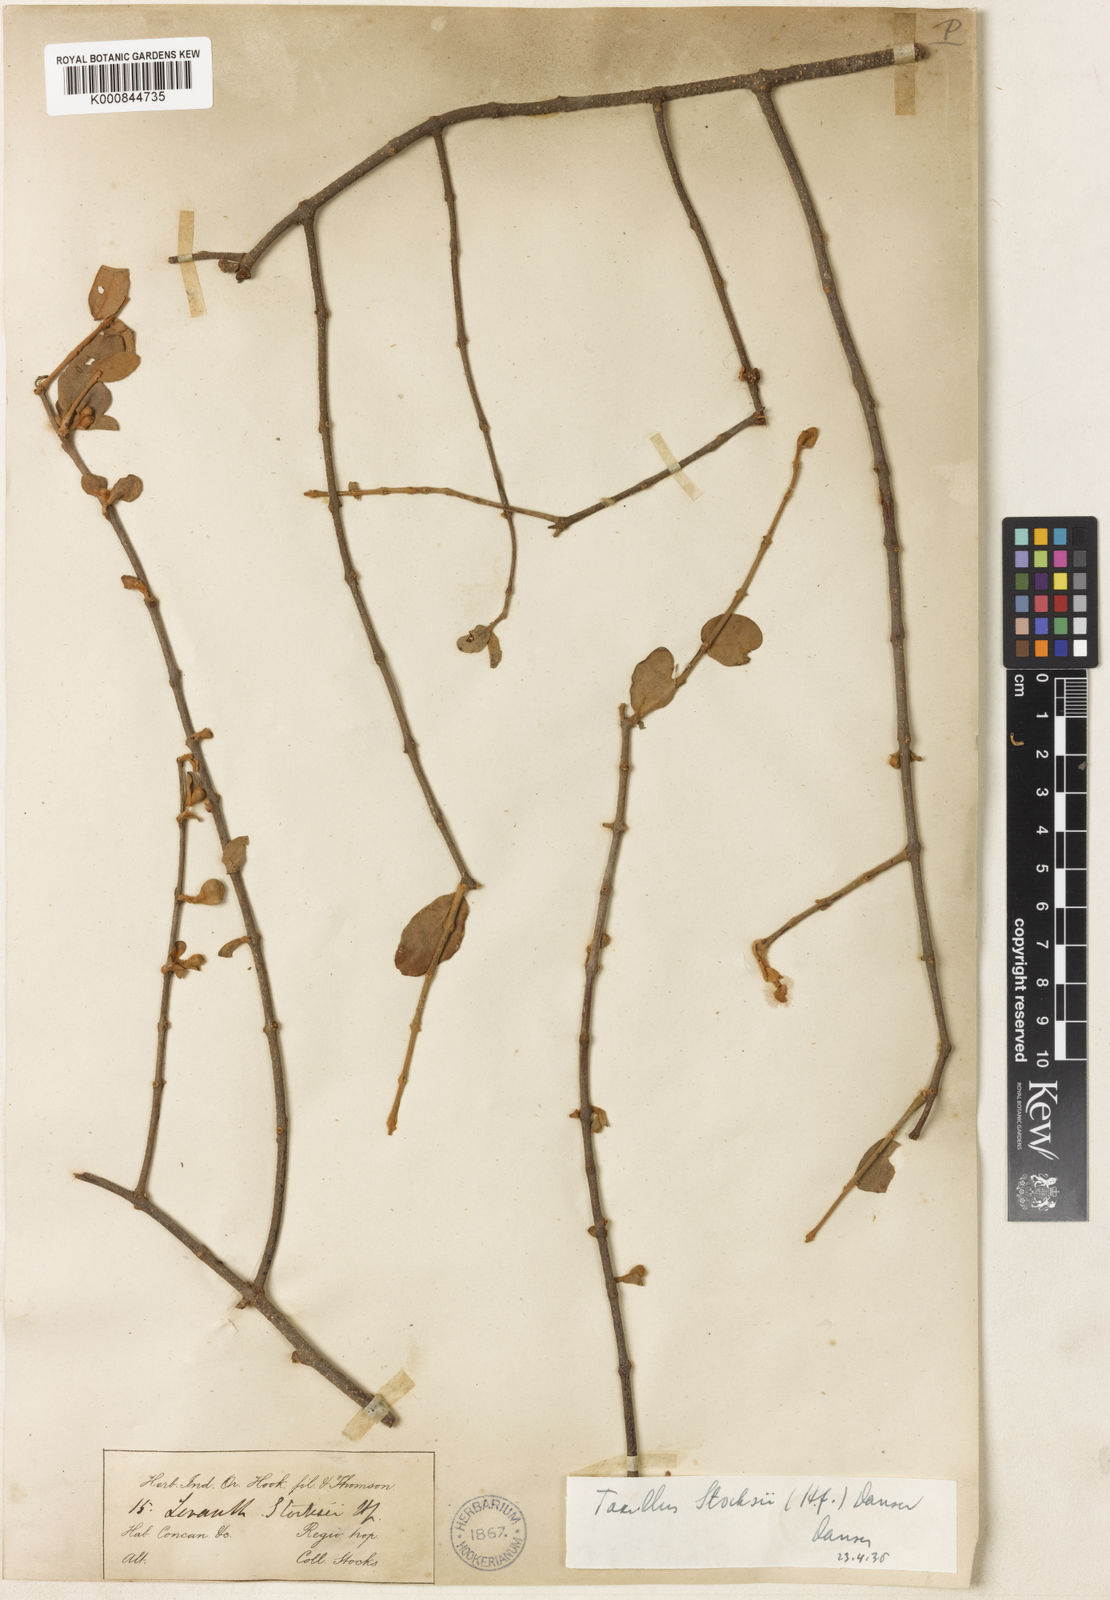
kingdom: Plantae
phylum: Tracheophyta
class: Magnoliopsida
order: Santalales
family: Loranthaceae
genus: Taxillus
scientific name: Taxillus
